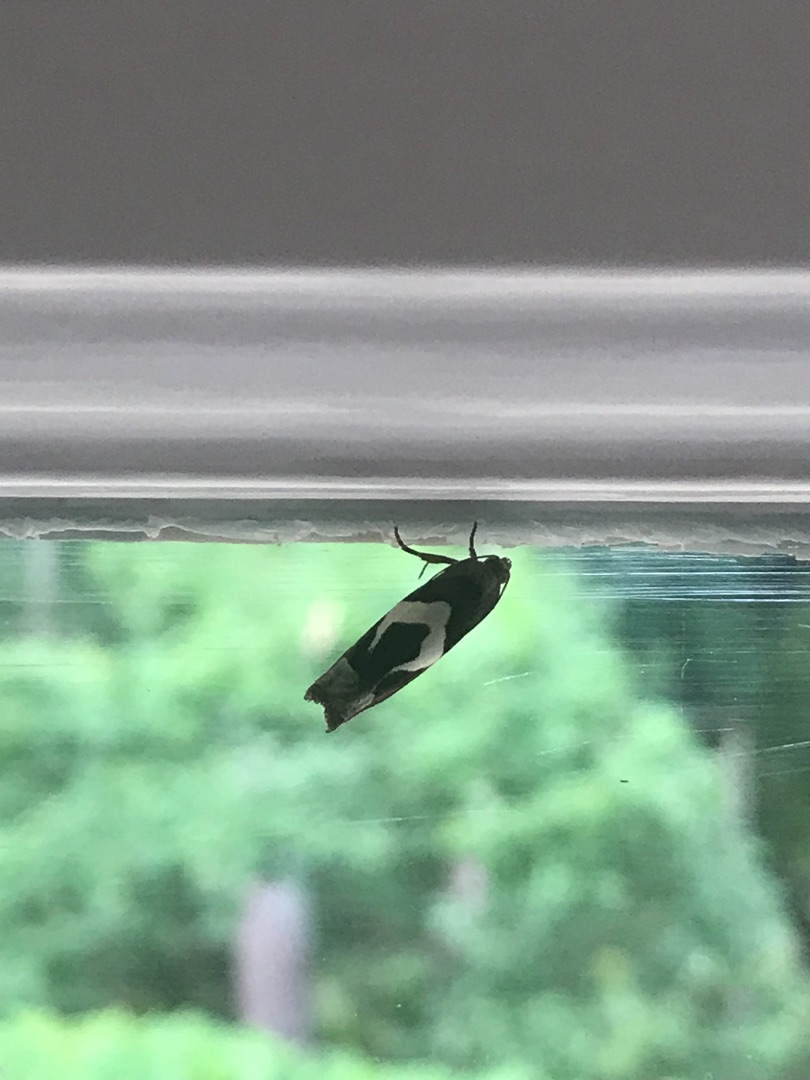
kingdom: Animalia
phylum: Arthropoda
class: Insecta
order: Lepidoptera
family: Tortricidae
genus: Epiblema
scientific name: Epiblema foenella
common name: Gråbynkegallevikler
